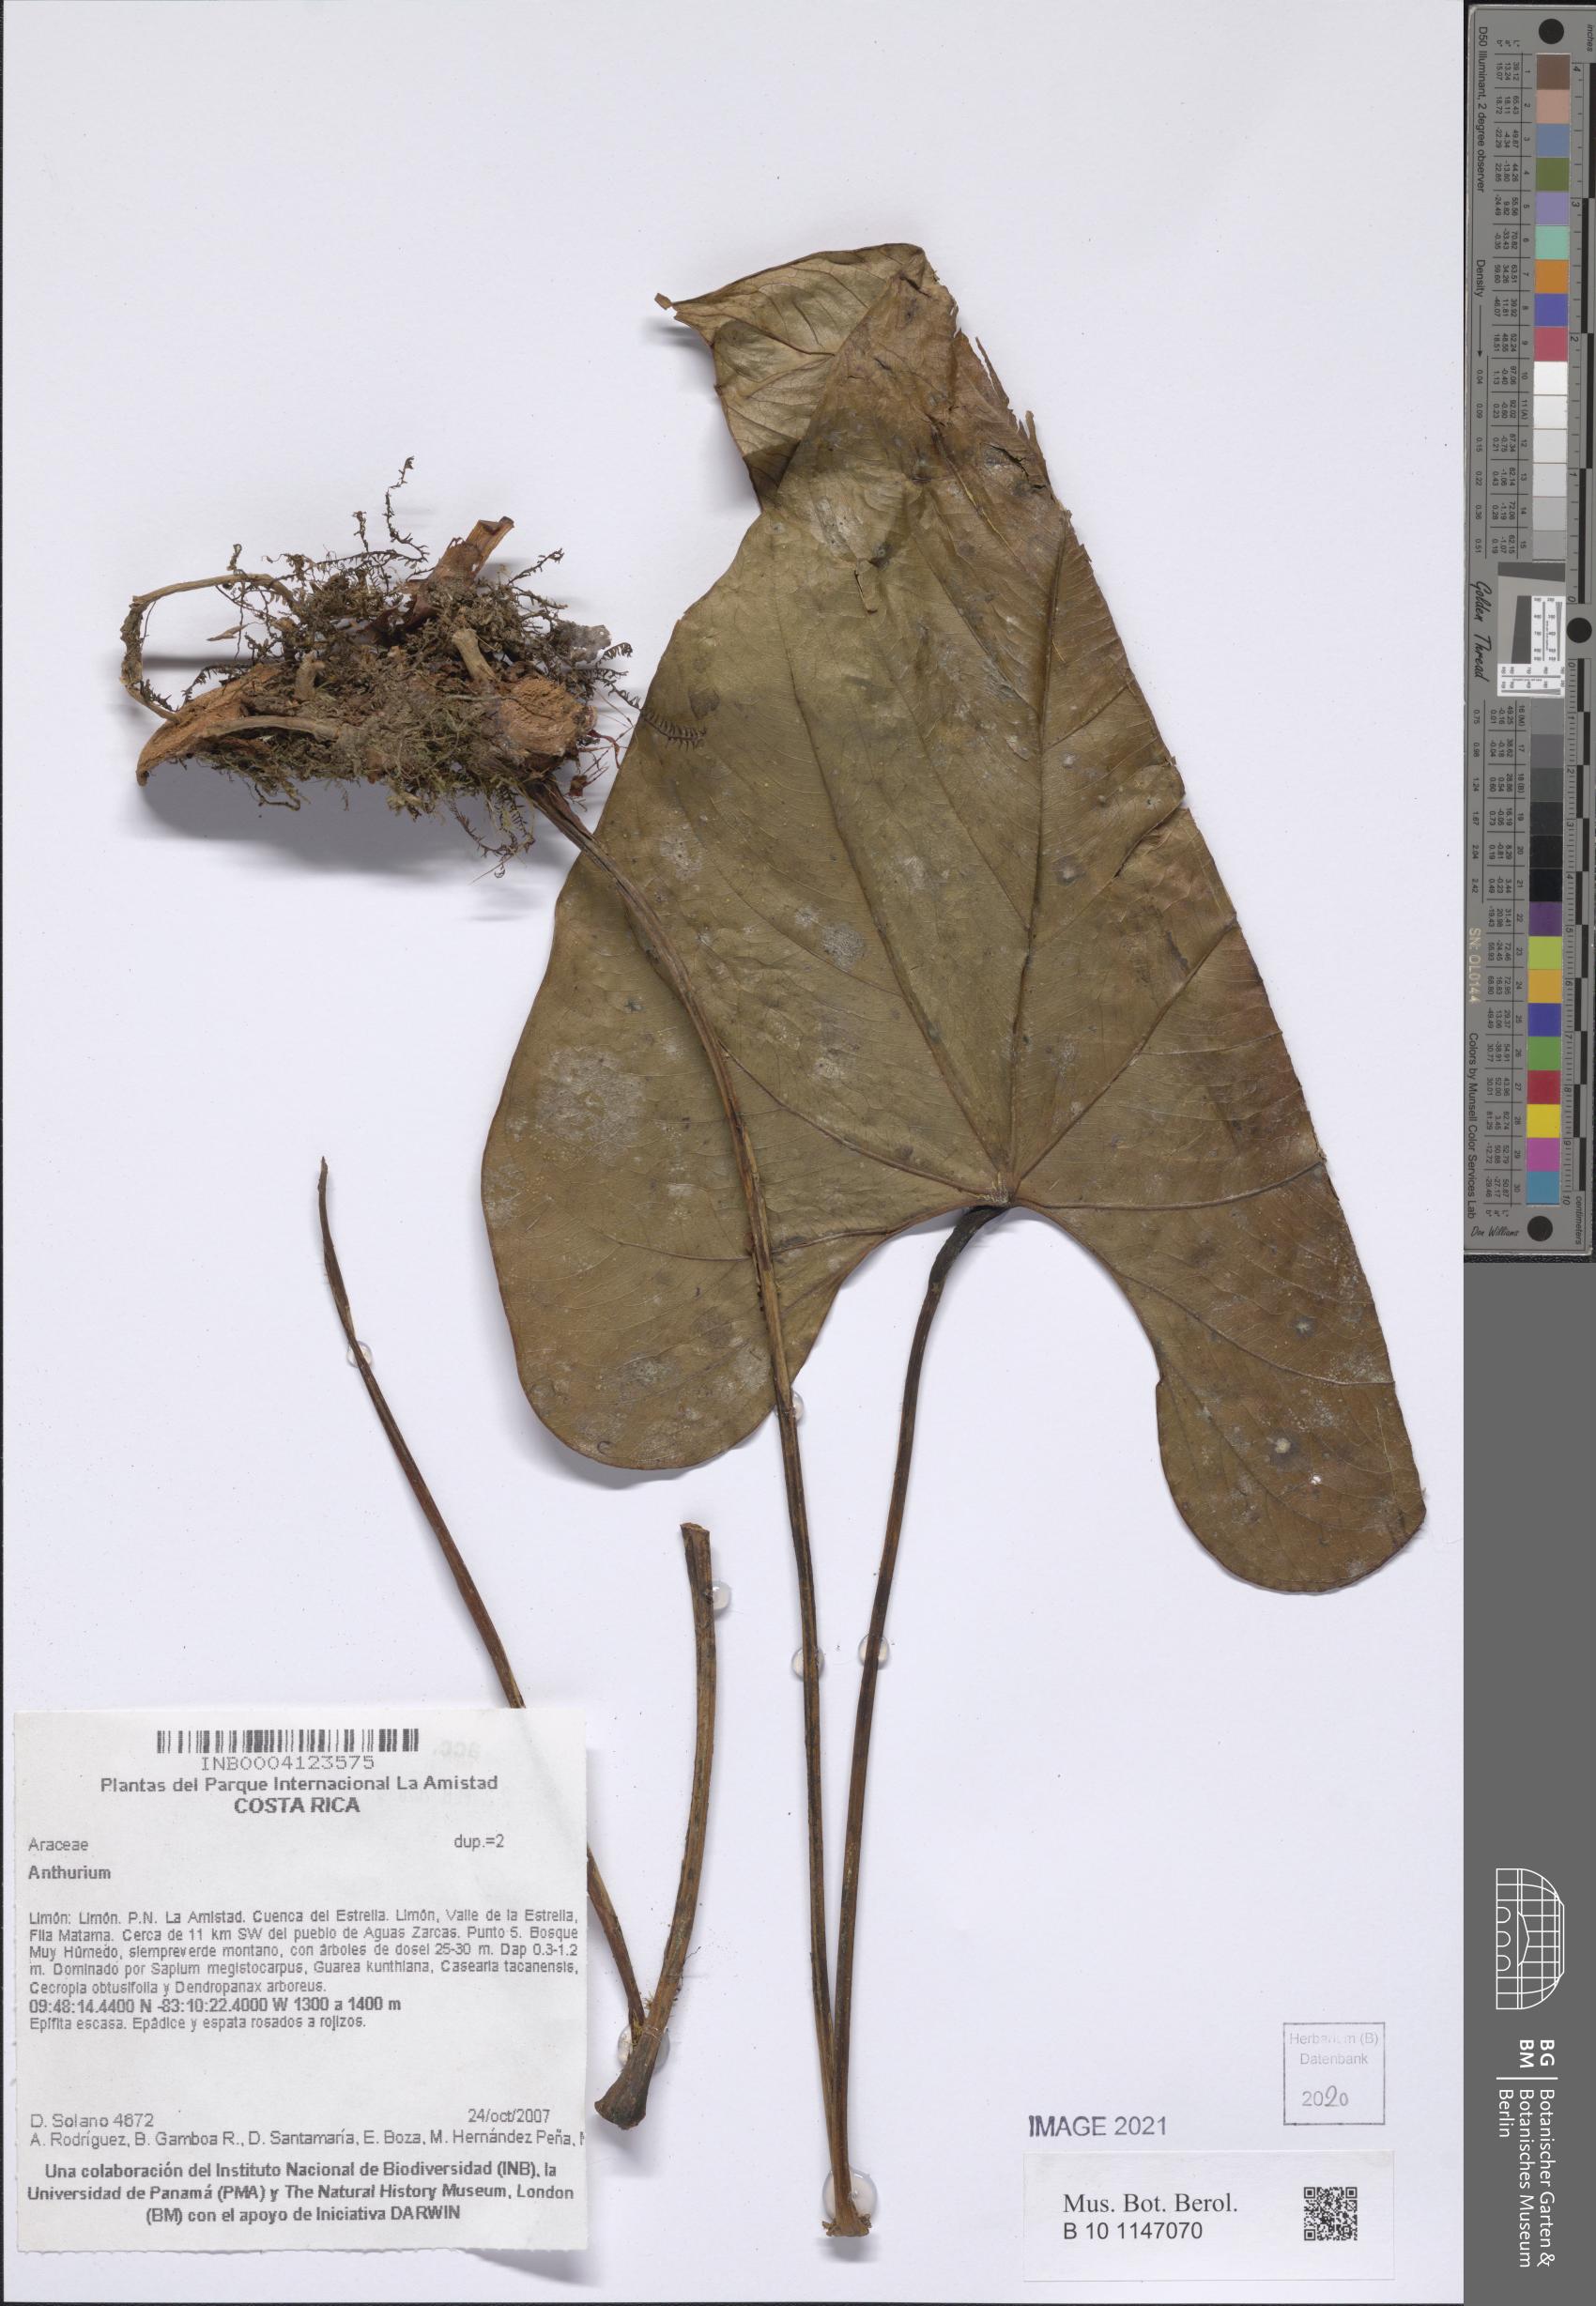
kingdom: Plantae
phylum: Tracheophyta
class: Liliopsida
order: Alismatales
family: Araceae
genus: Anthurium
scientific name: Anthurium
